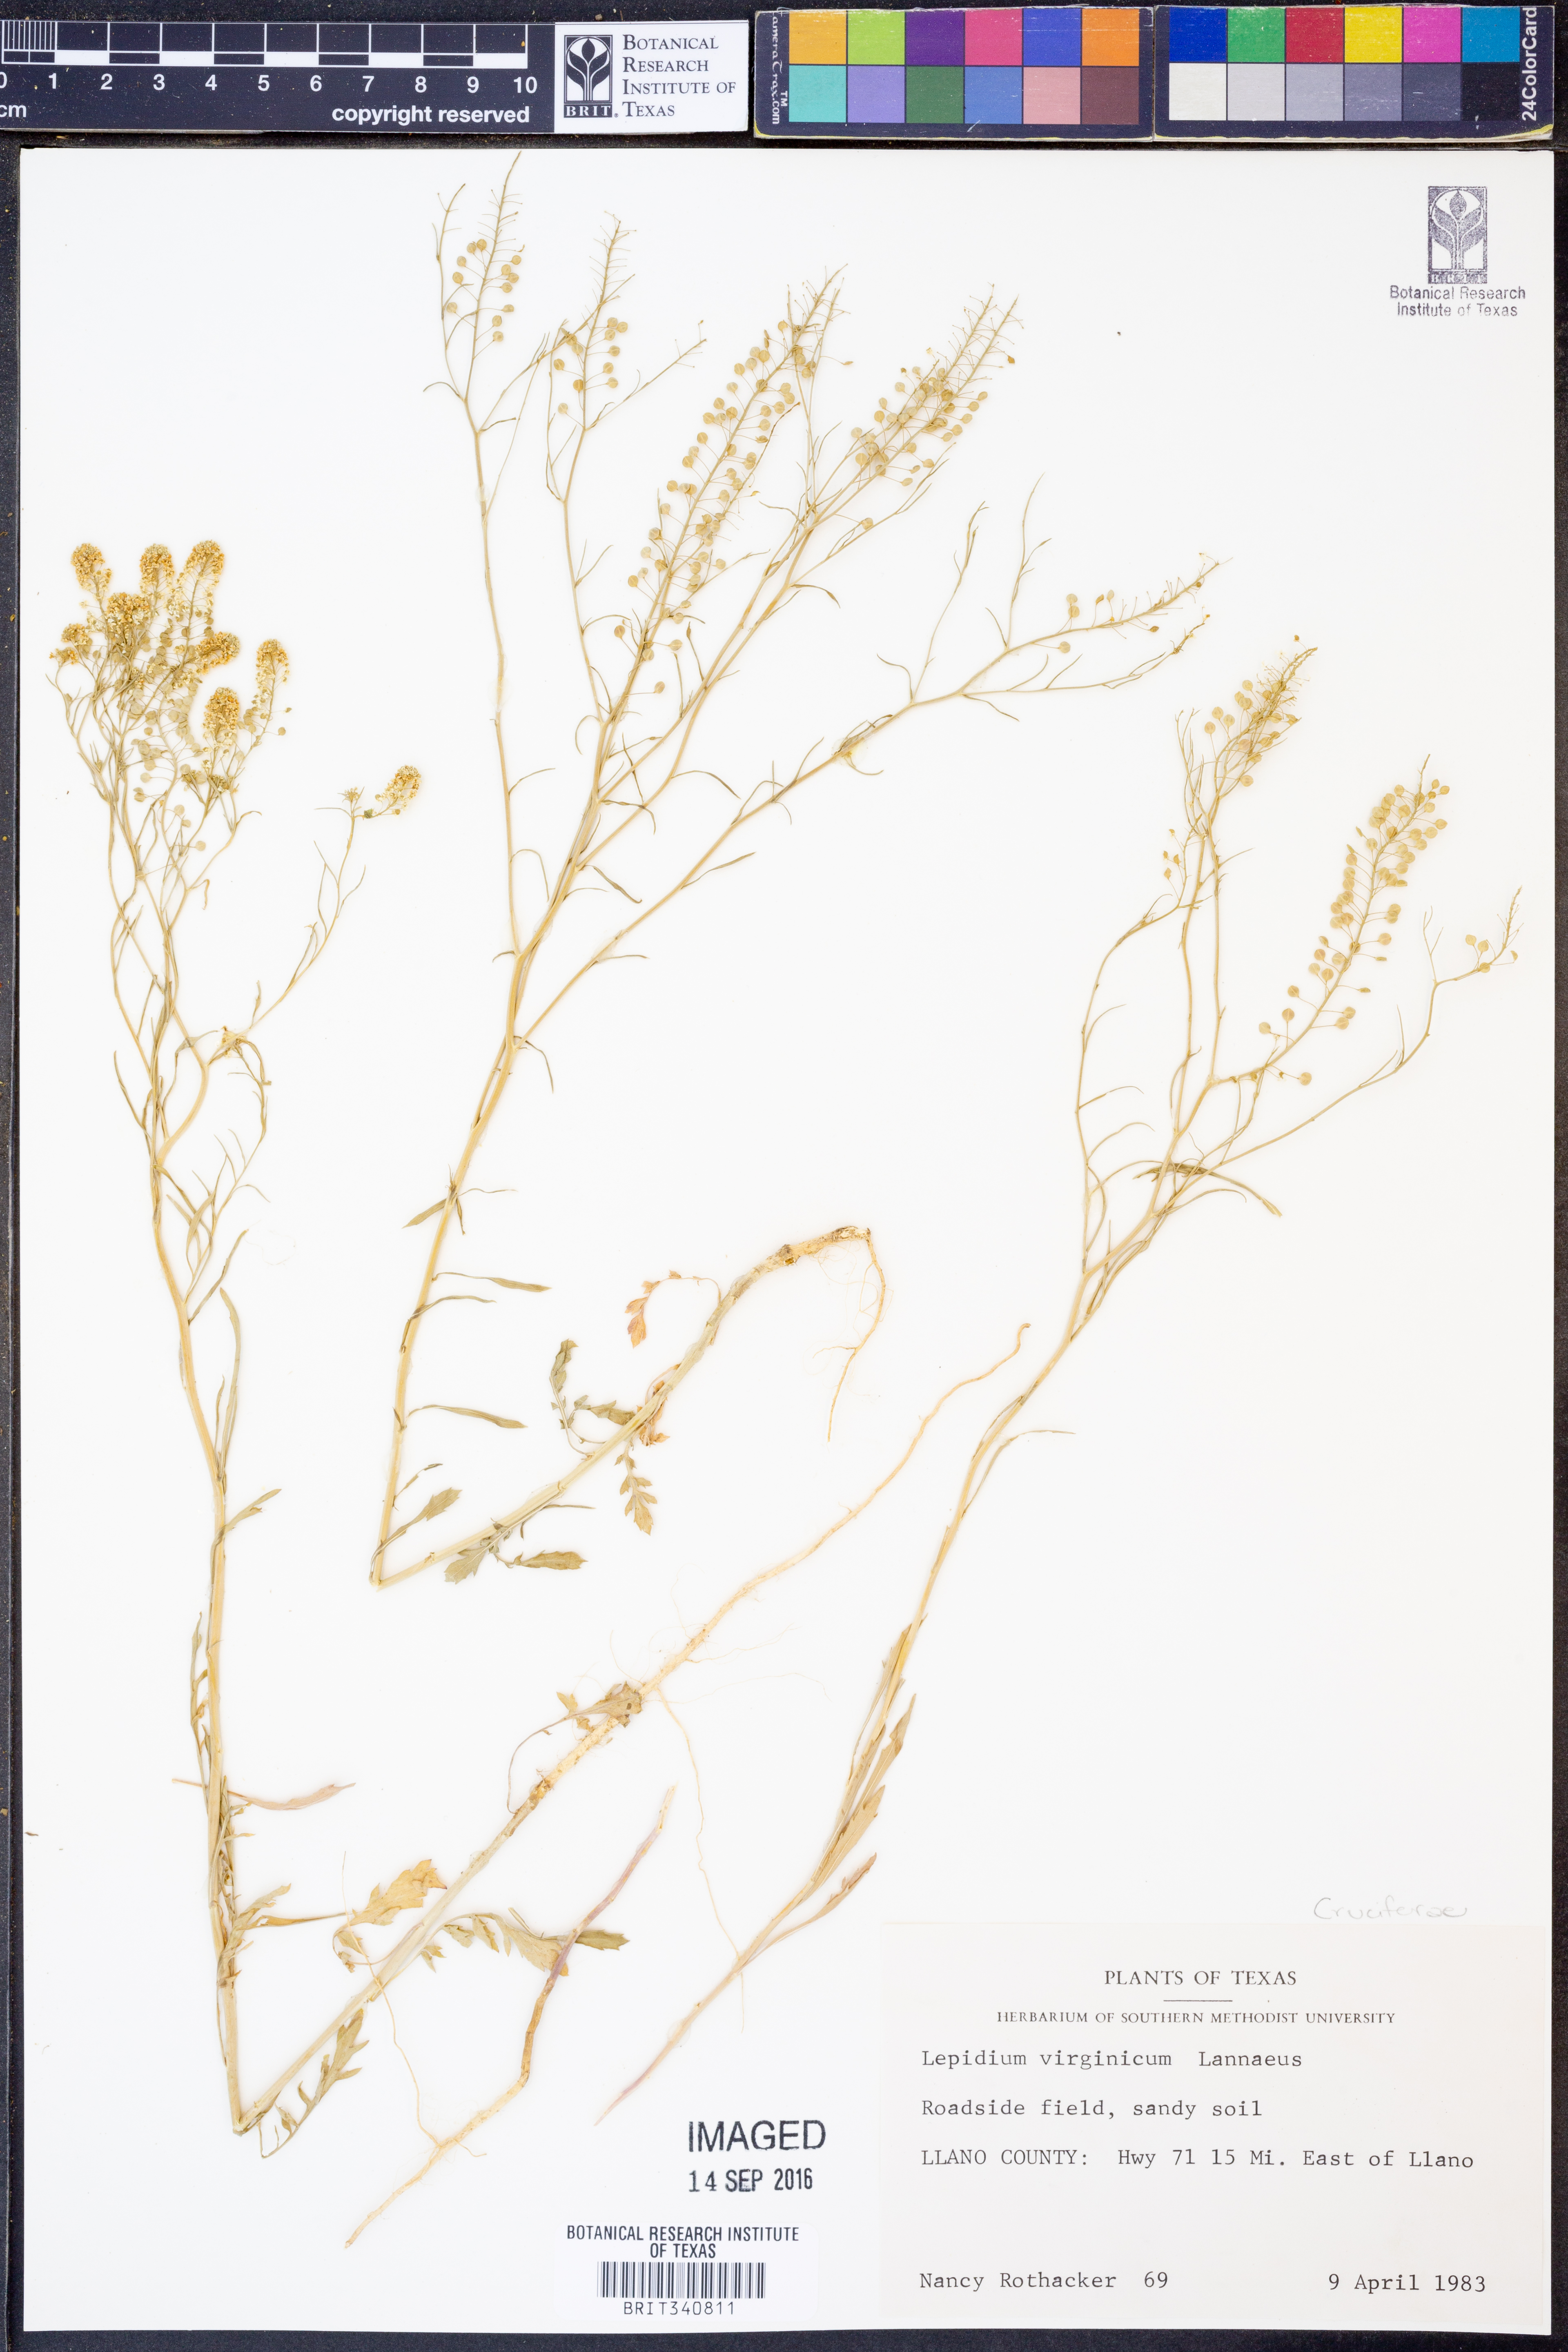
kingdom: Plantae
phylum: Tracheophyta
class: Magnoliopsida
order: Brassicales
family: Brassicaceae
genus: Lepidium
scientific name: Lepidium virginicum
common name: Least pepperwort
